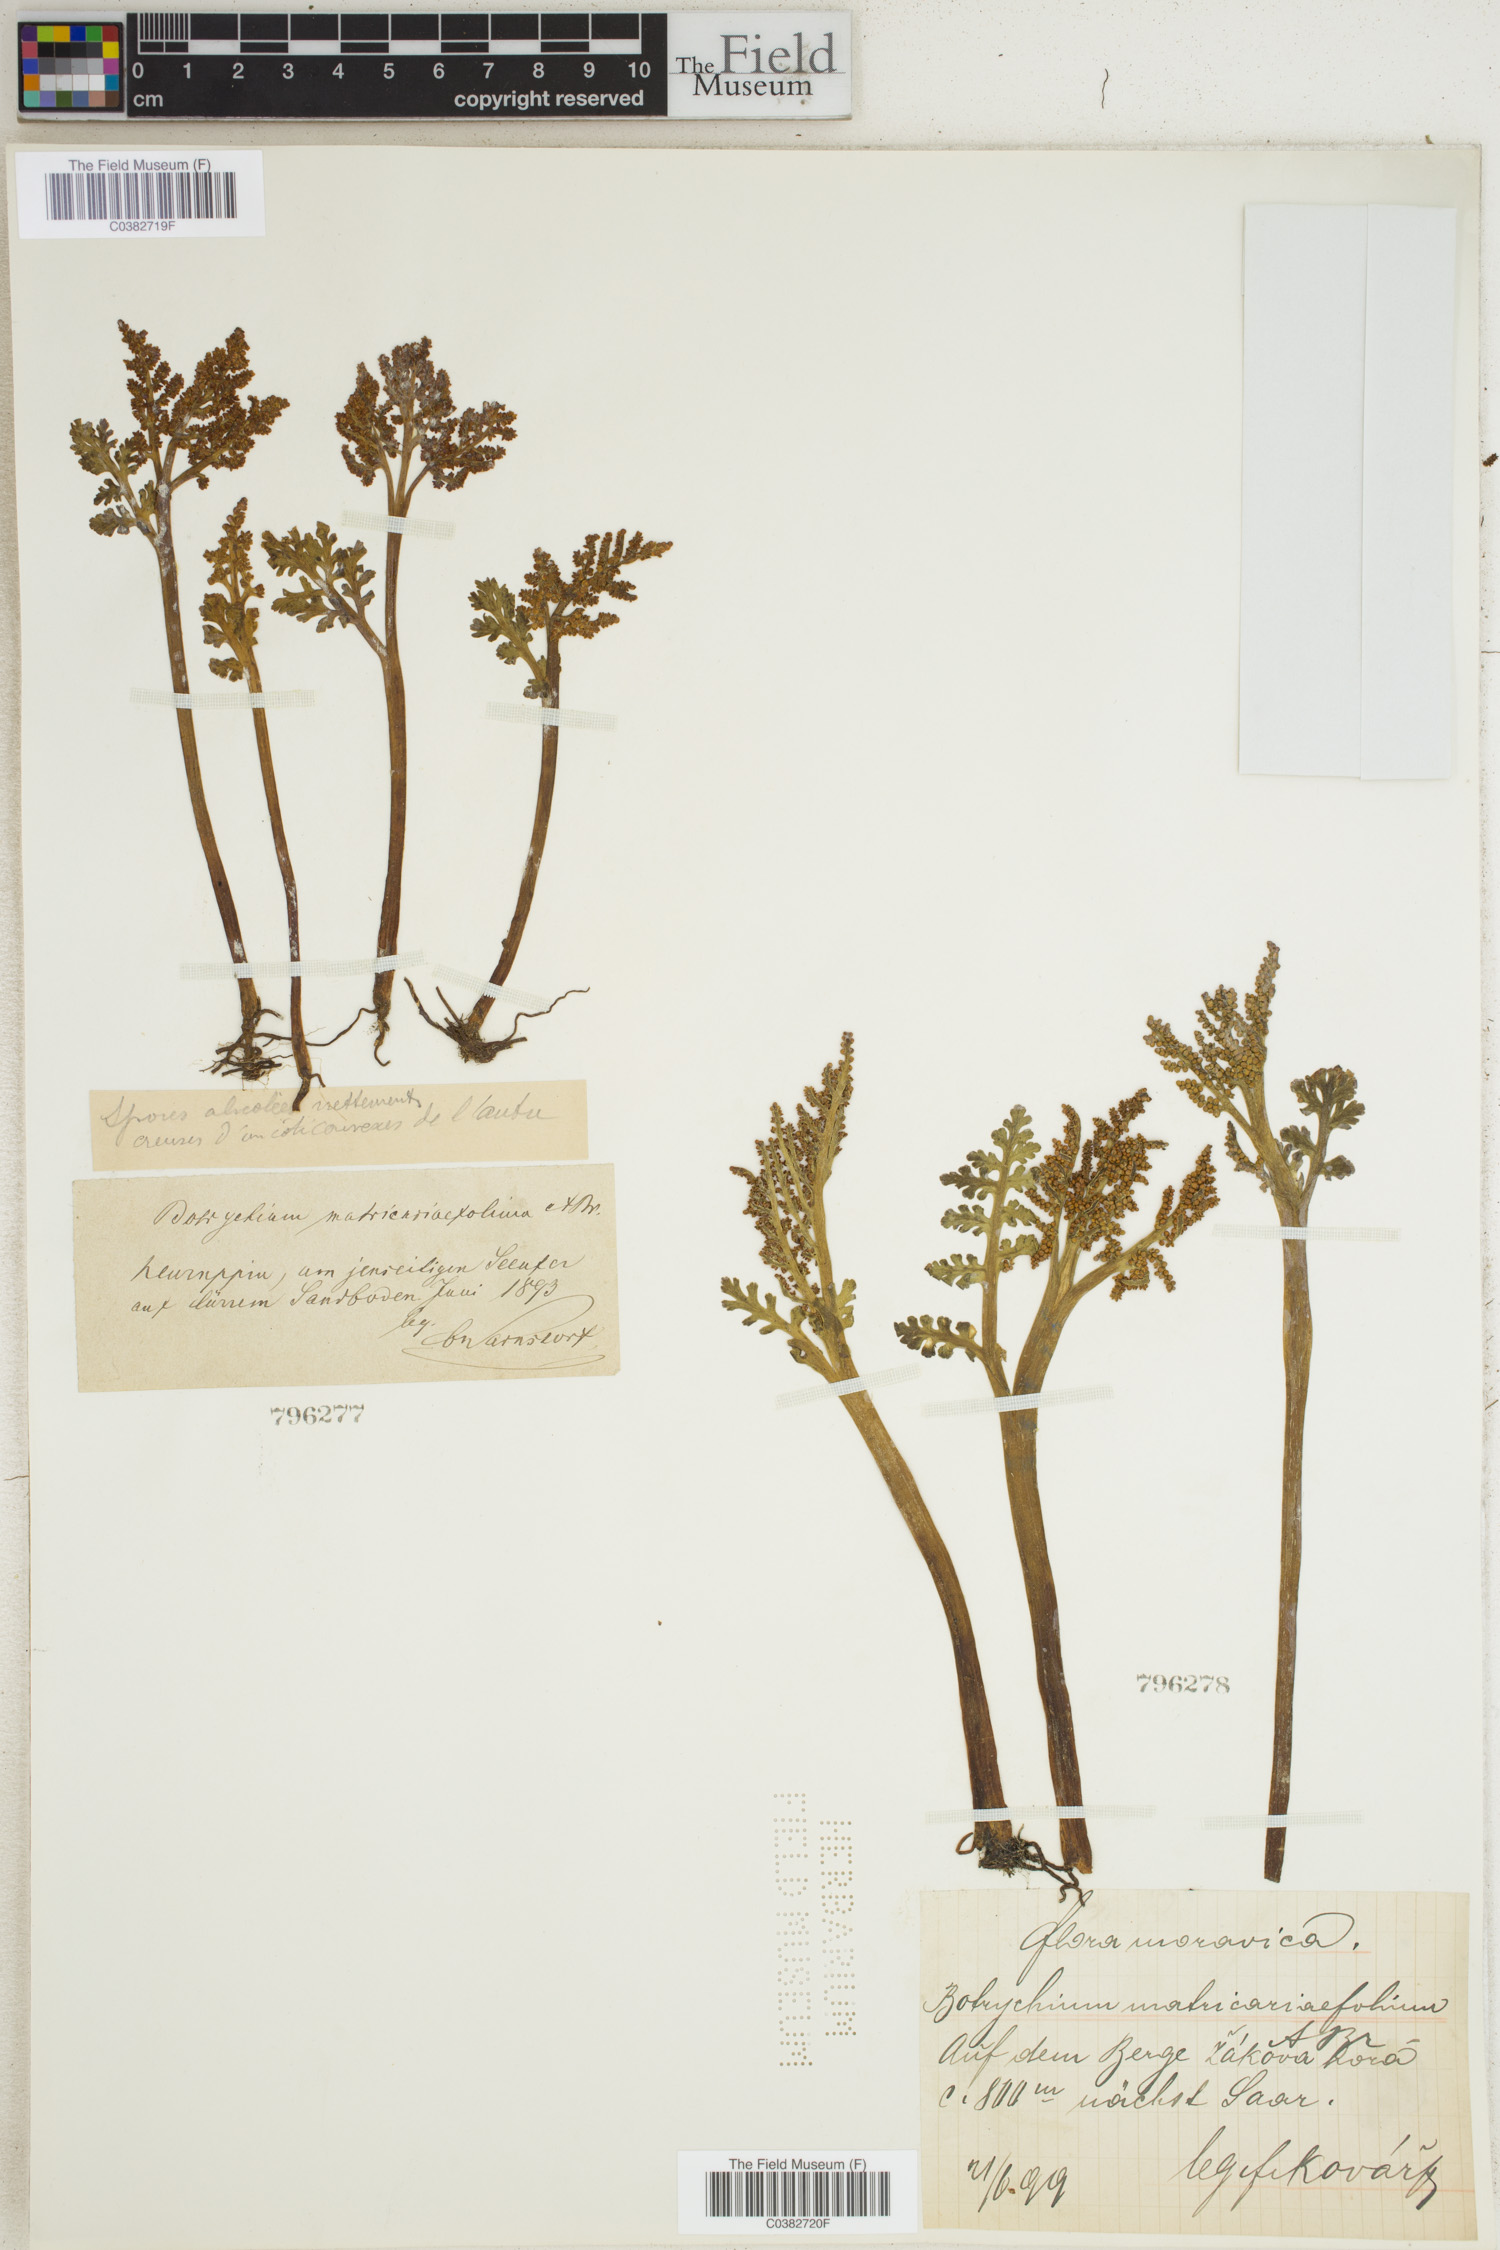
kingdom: Plantae
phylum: Tracheophyta
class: Polypodiopsida
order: Ophioglossales
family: Ophioglossaceae
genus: Botrychium
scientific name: Botrychium matricariifolium
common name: Branched moonwort
